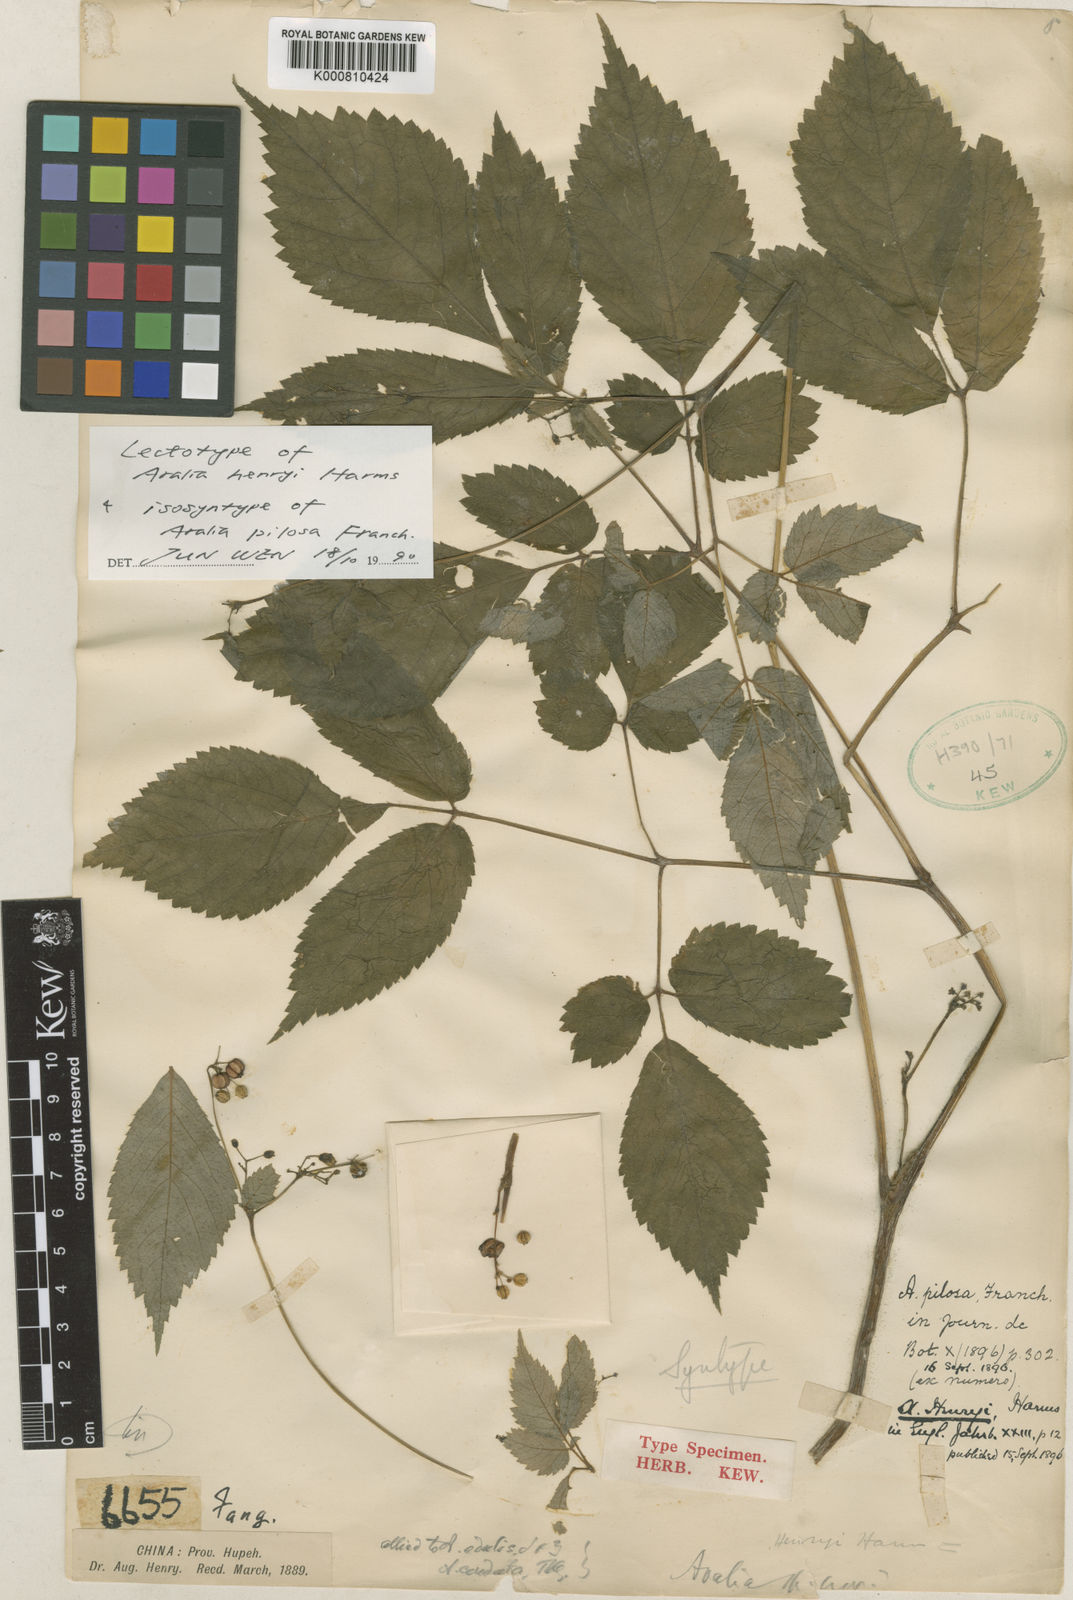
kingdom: Plantae
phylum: Tracheophyta
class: Magnoliopsida
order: Apiales
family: Araliaceae
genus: Aralia
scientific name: Aralia henryi
